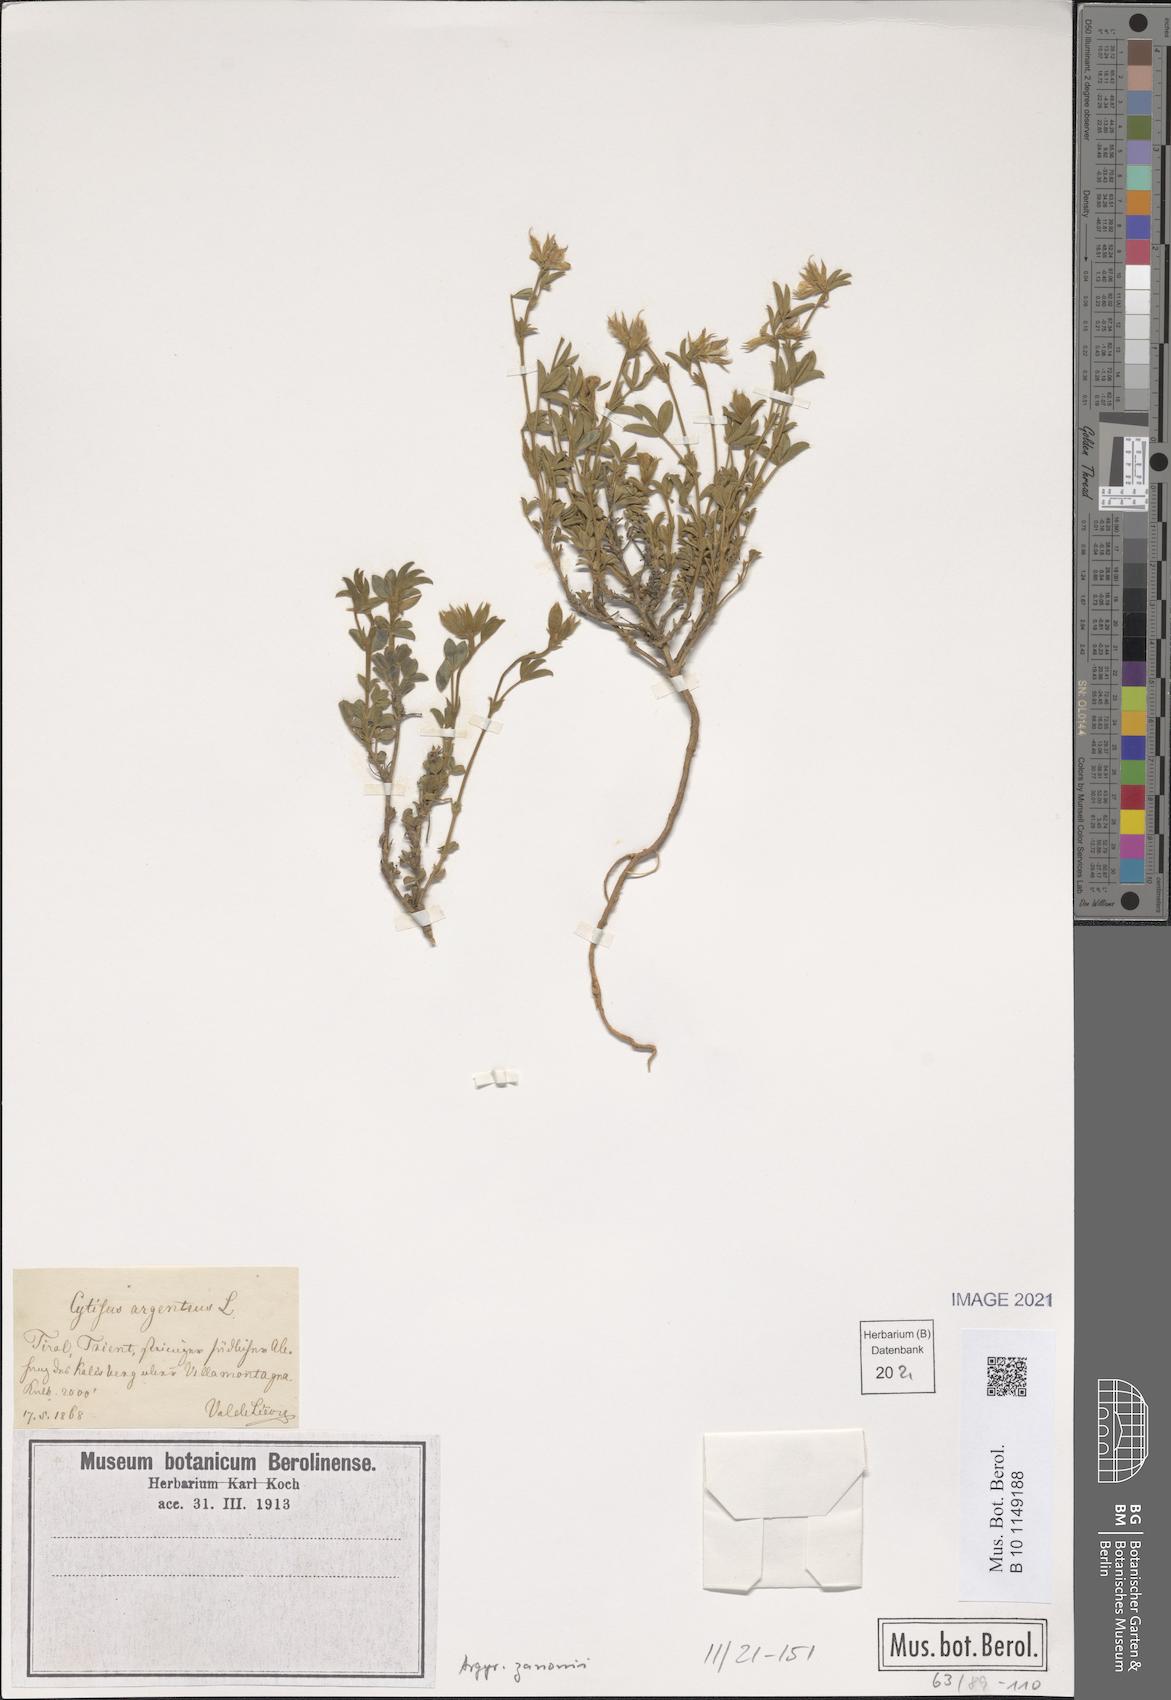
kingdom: Plantae
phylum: Tracheophyta
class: Magnoliopsida
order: Fabales
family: Fabaceae
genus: Argyrolobium
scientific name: Argyrolobium zanonii
